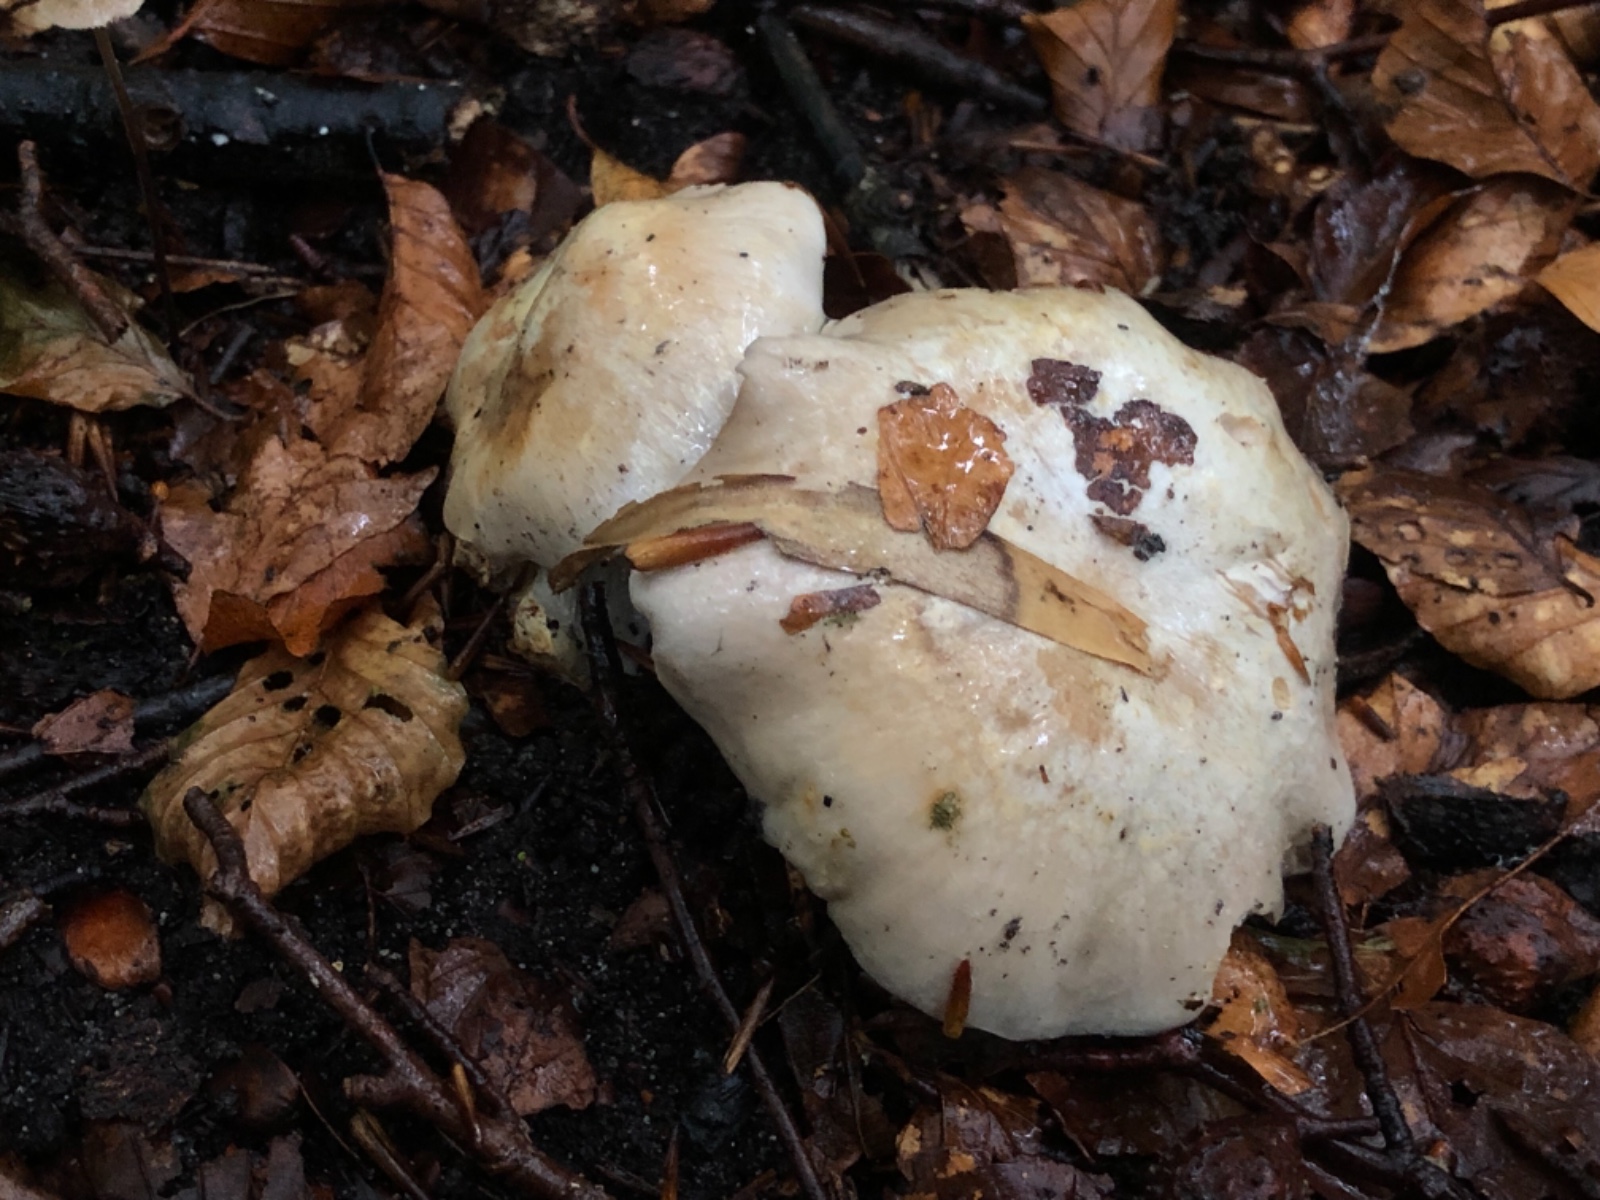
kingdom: Fungi
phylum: Basidiomycota
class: Agaricomycetes
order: Agaricales
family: Cortinariaceae
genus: Cortinarius
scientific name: Cortinarius foetens
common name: stribet slørhat
